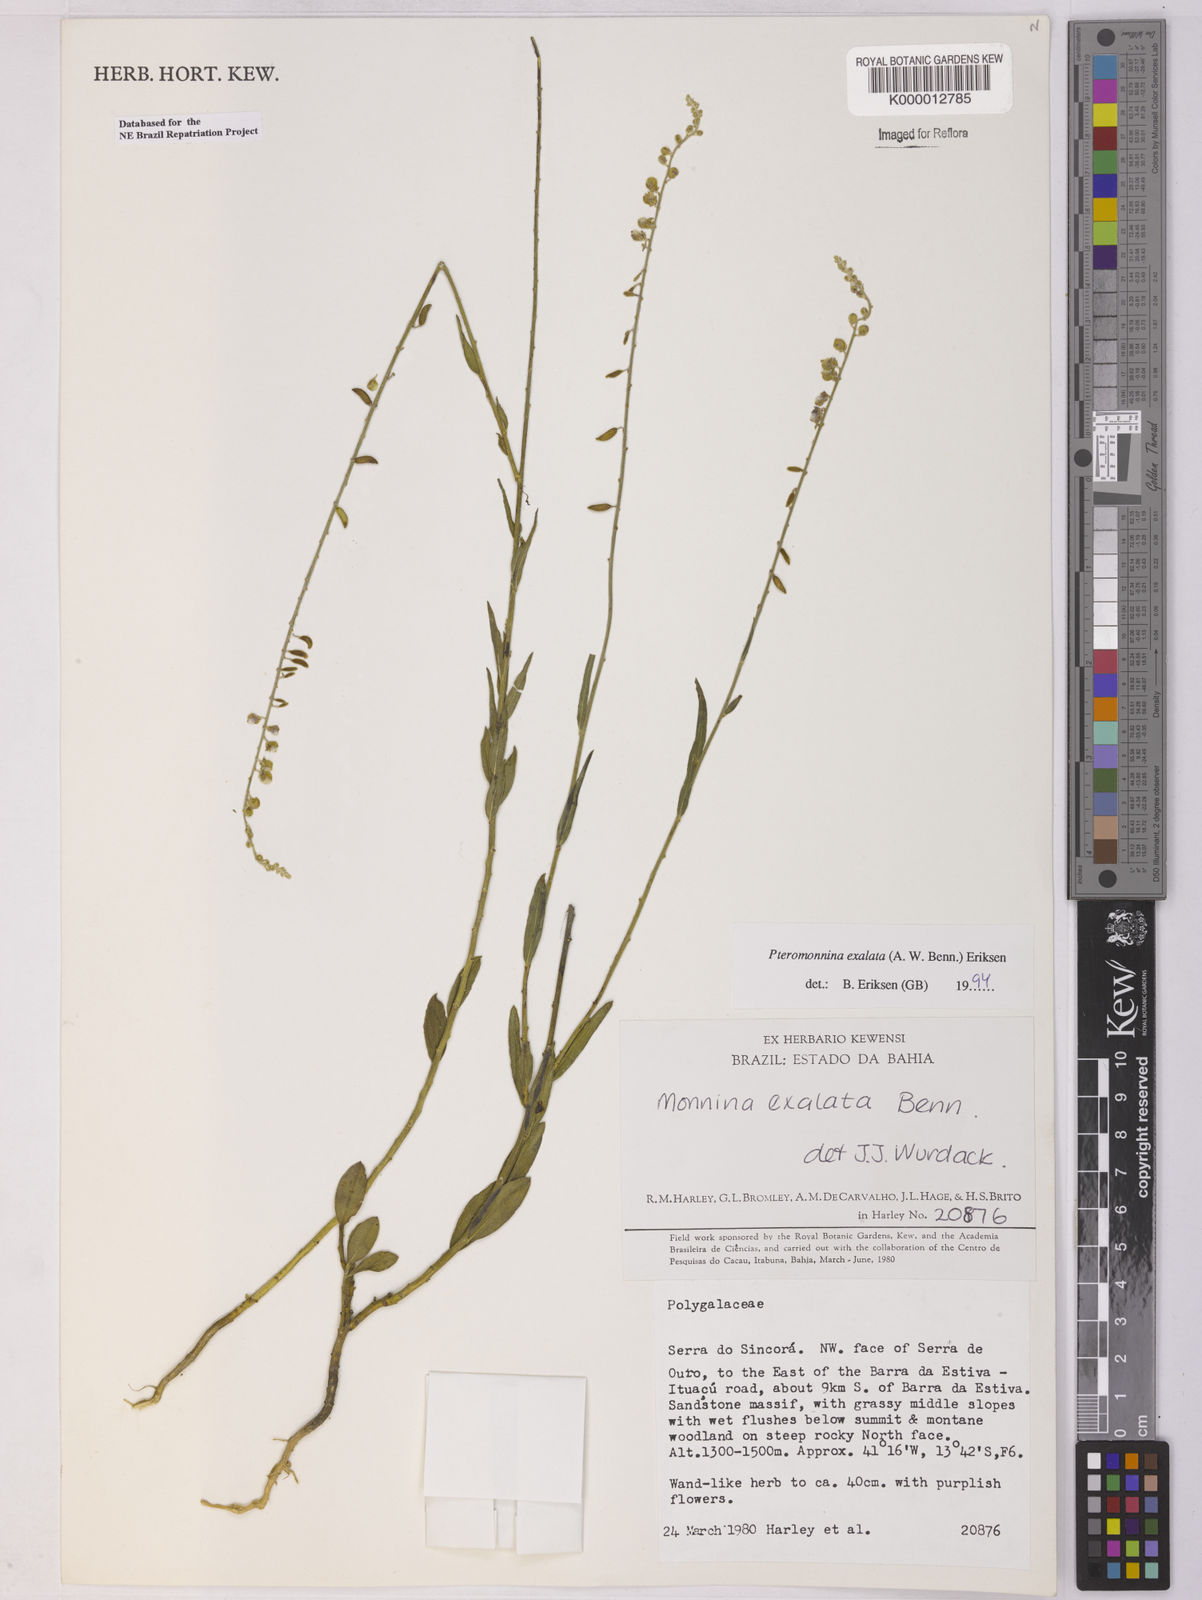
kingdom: Plantae
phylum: Tracheophyta
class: Magnoliopsida
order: Fabales
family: Polygalaceae
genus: Monnina
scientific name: Monnina exalata
